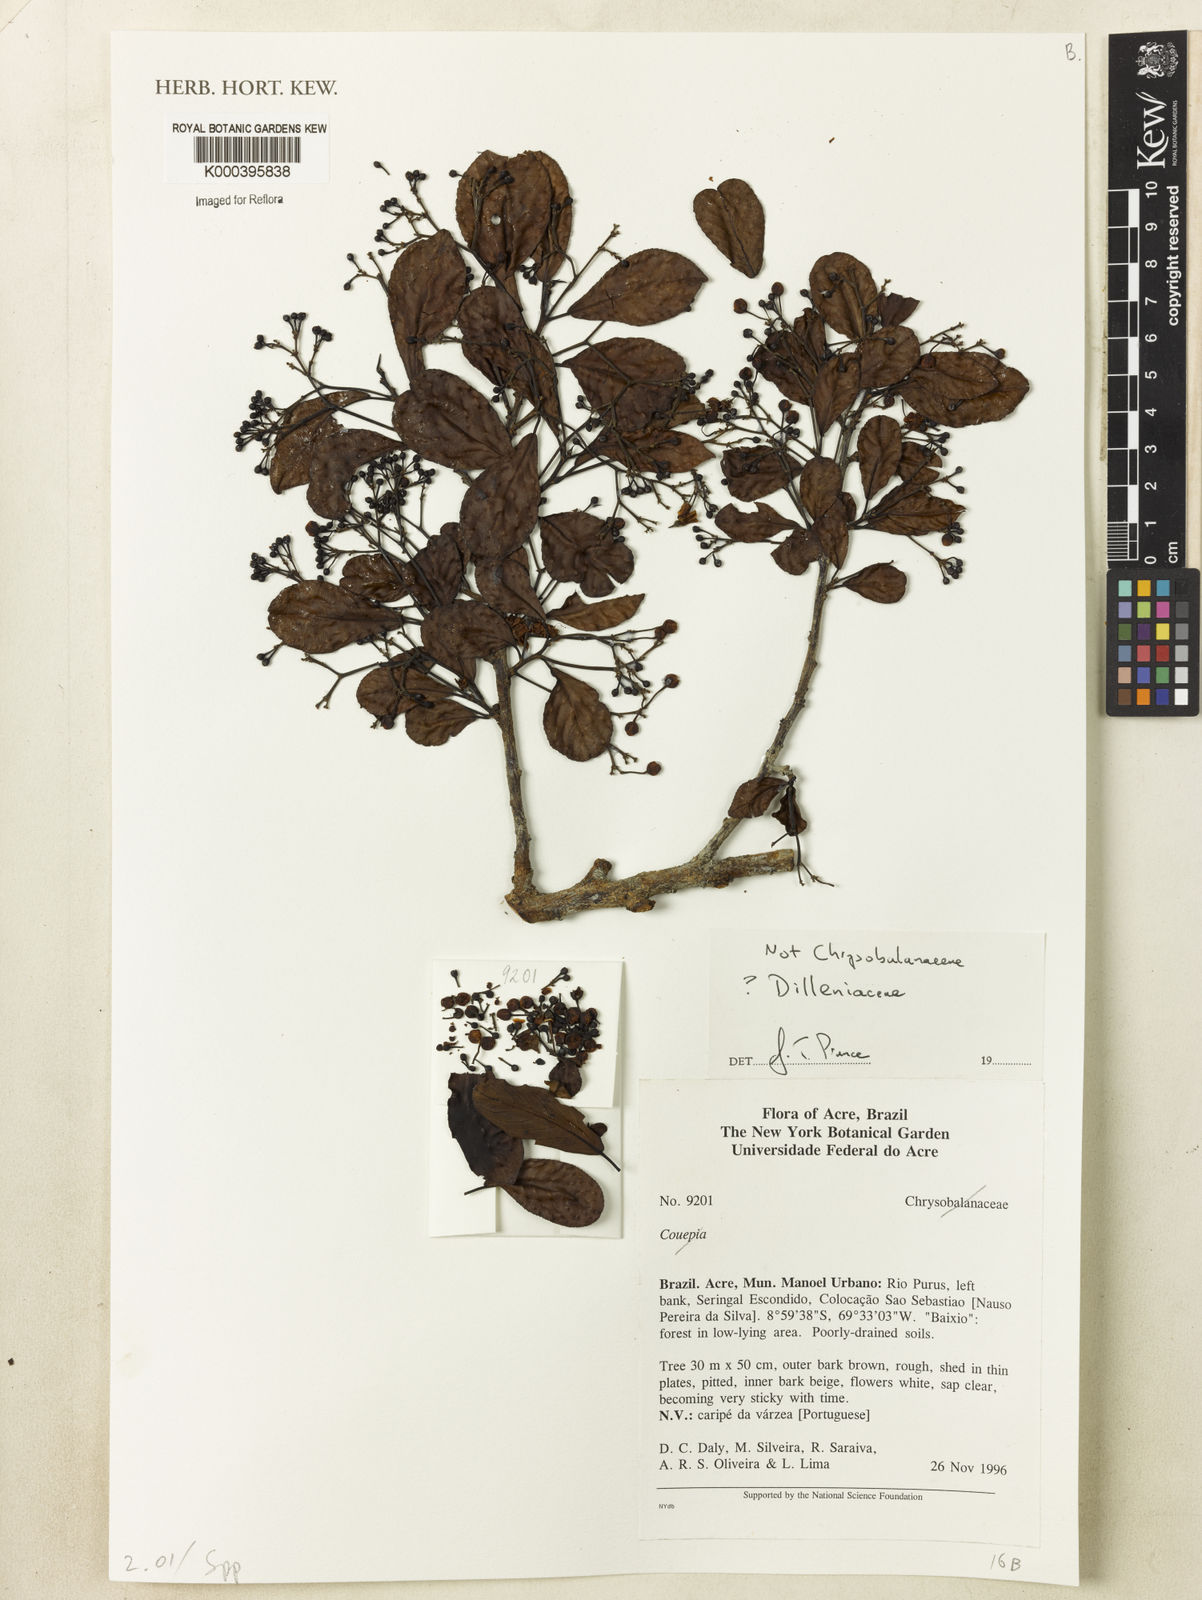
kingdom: Plantae
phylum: Tracheophyta
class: Magnoliopsida
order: Malpighiales
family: Chrysobalanaceae
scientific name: Chrysobalanaceae
